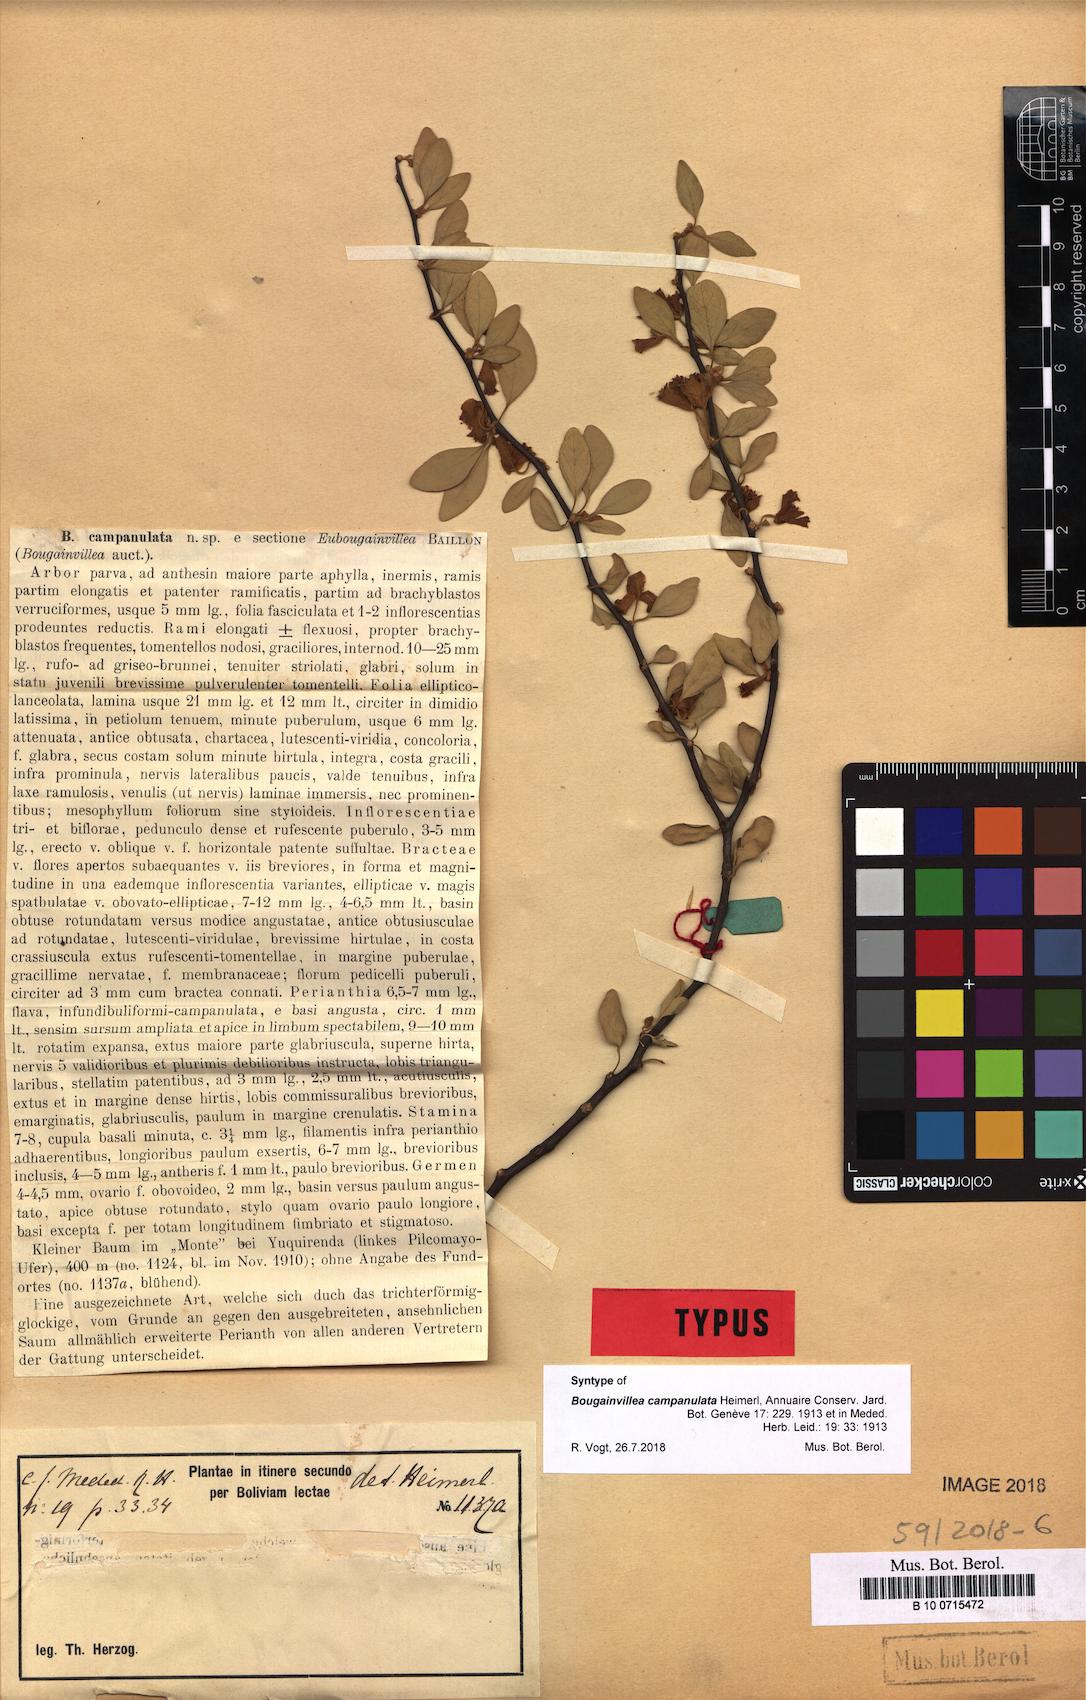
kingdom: Plantae
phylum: Tracheophyta
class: Magnoliopsida
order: Caryophyllales
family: Nyctaginaceae
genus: Bougainvillea
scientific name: Bougainvillea campanulata
